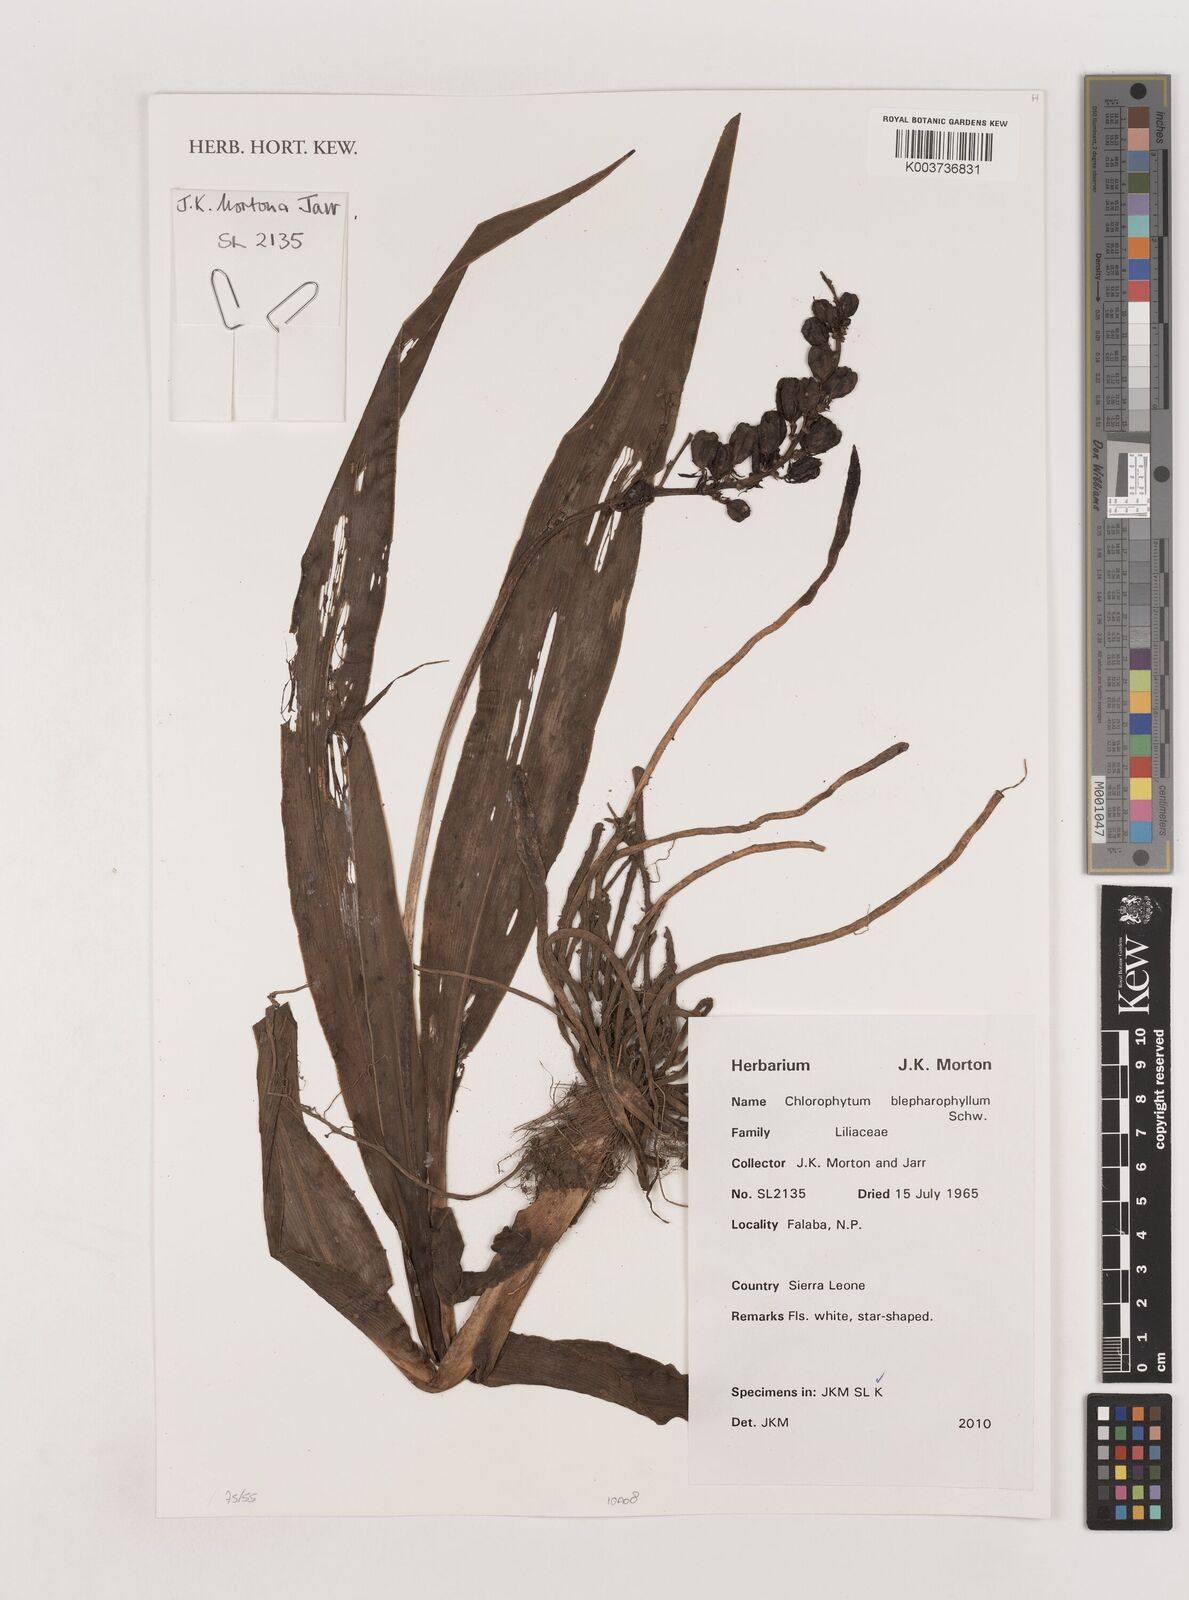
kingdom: Plantae
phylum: Tracheophyta
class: Liliopsida
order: Asparagales
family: Asparagaceae
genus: Chlorophytum
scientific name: Chlorophytum blepharophyllum
